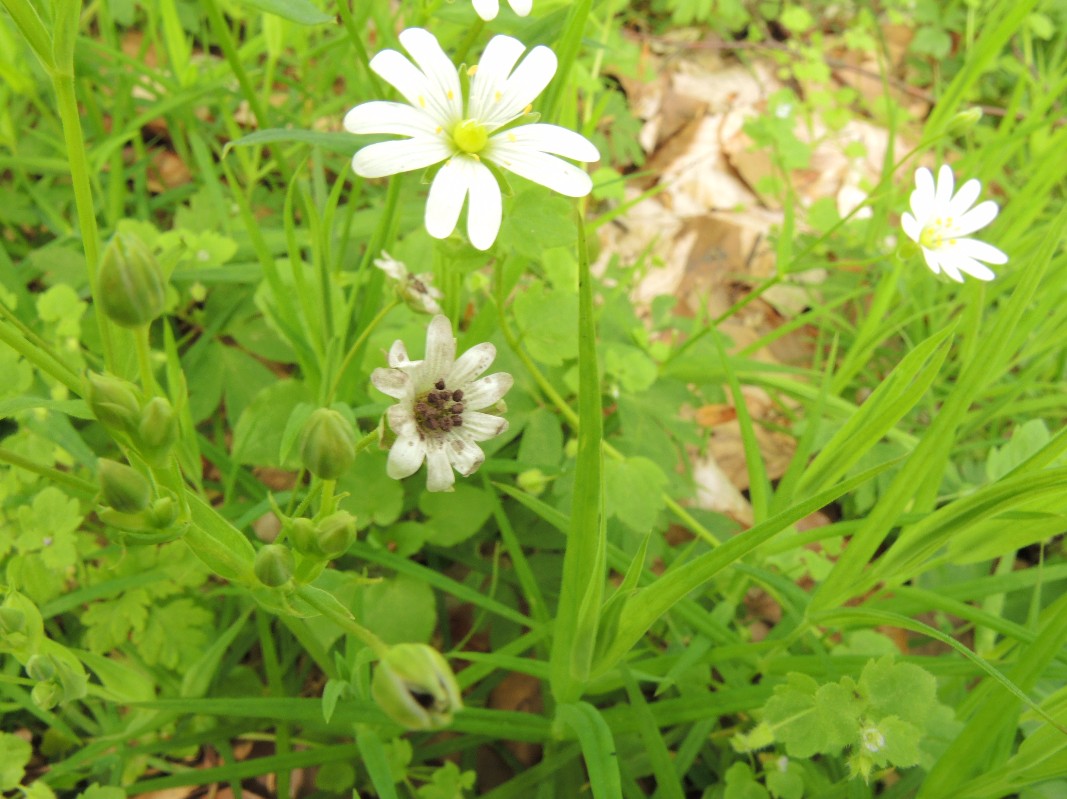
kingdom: Fungi
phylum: Basidiomycota
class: Microbotryomycetes
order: Microbotryales
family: Microbotryaceae
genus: Microbotryum
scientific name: Microbotryum stellariae
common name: fladstjerne-støvbladrust
